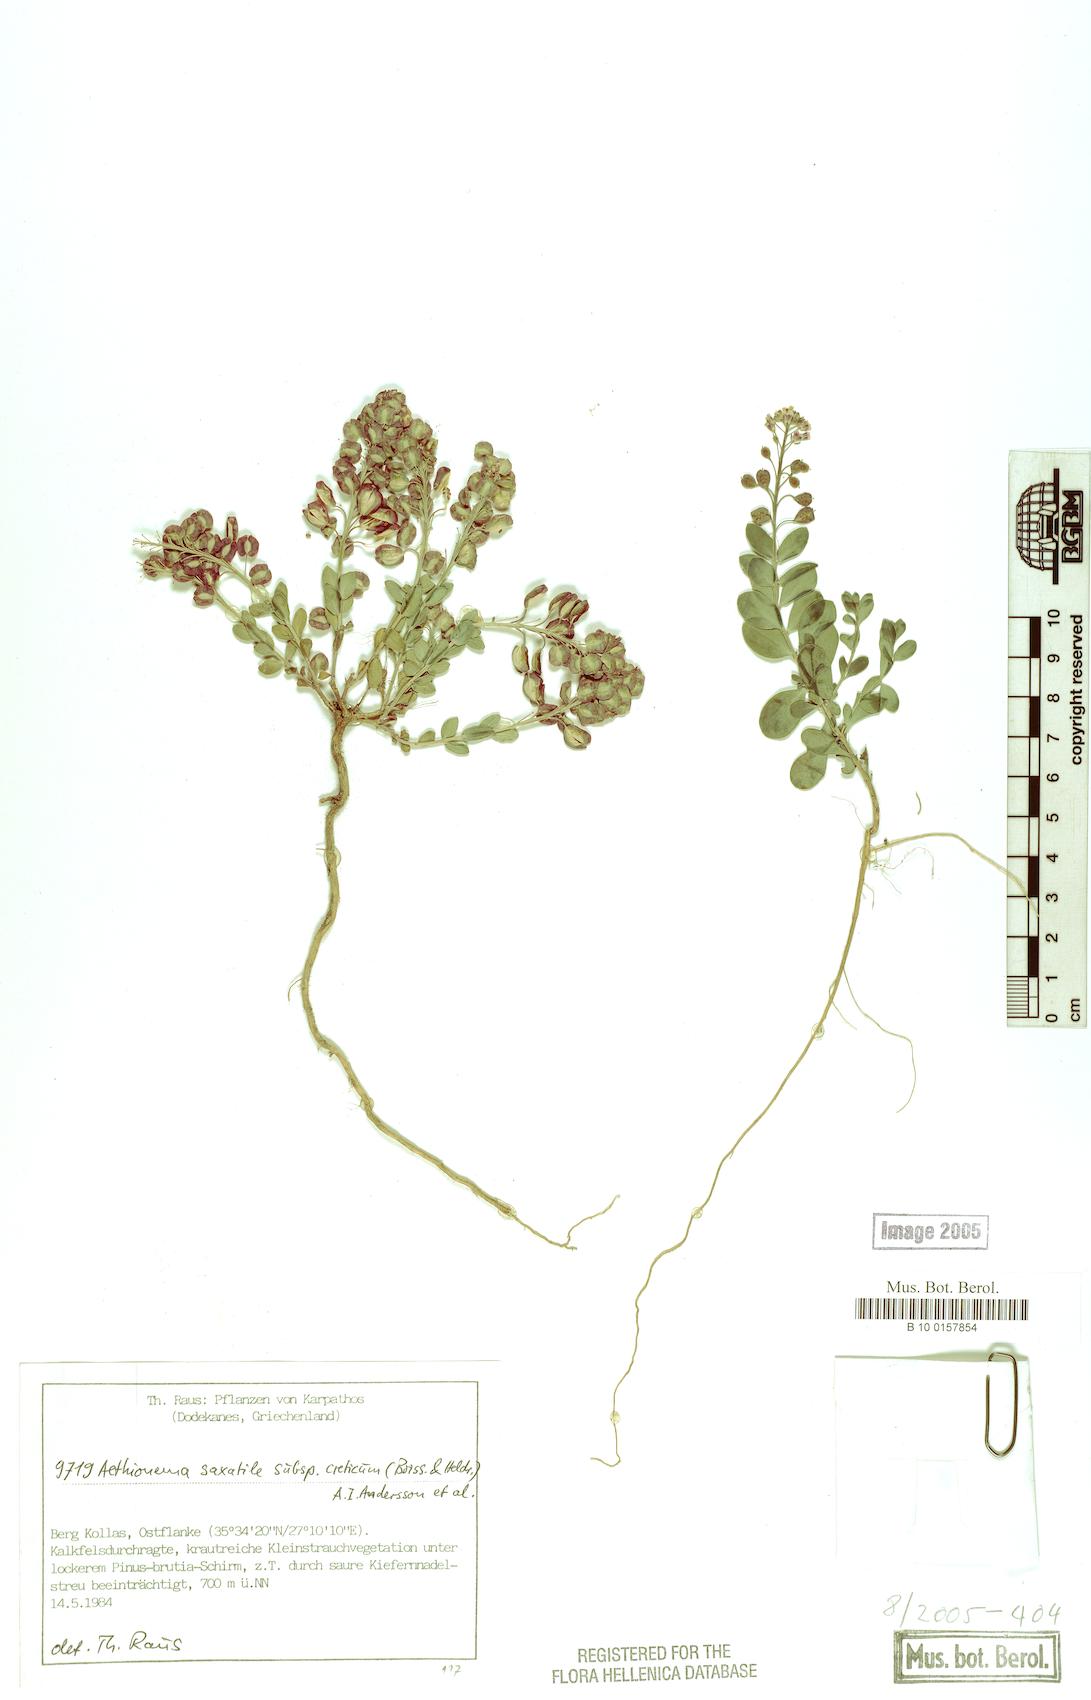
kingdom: Plantae
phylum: Tracheophyta
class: Magnoliopsida
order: Brassicales
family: Brassicaceae
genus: Aethionema
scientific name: Aethionema saxatile
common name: Burnt candytuft
